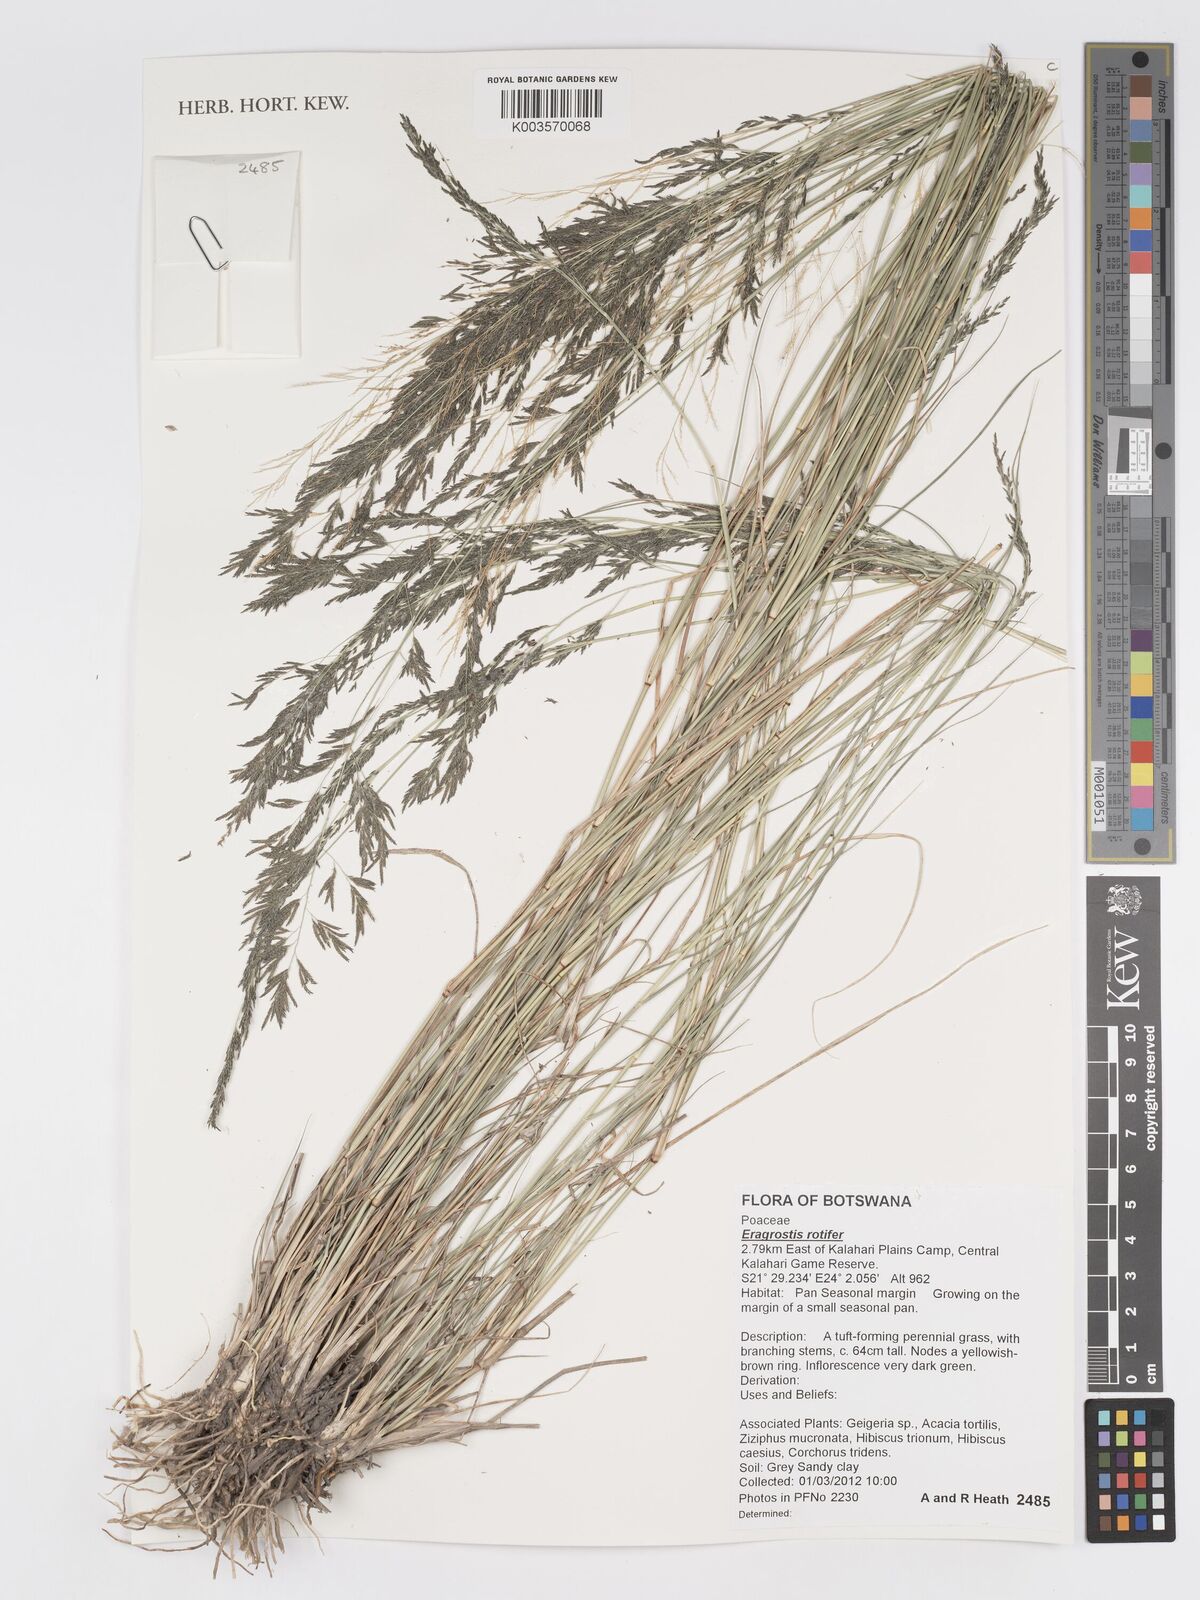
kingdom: Plantae
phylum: Tracheophyta
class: Liliopsida
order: Poales
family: Poaceae
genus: Eragrostis
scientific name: Eragrostis rotifer
